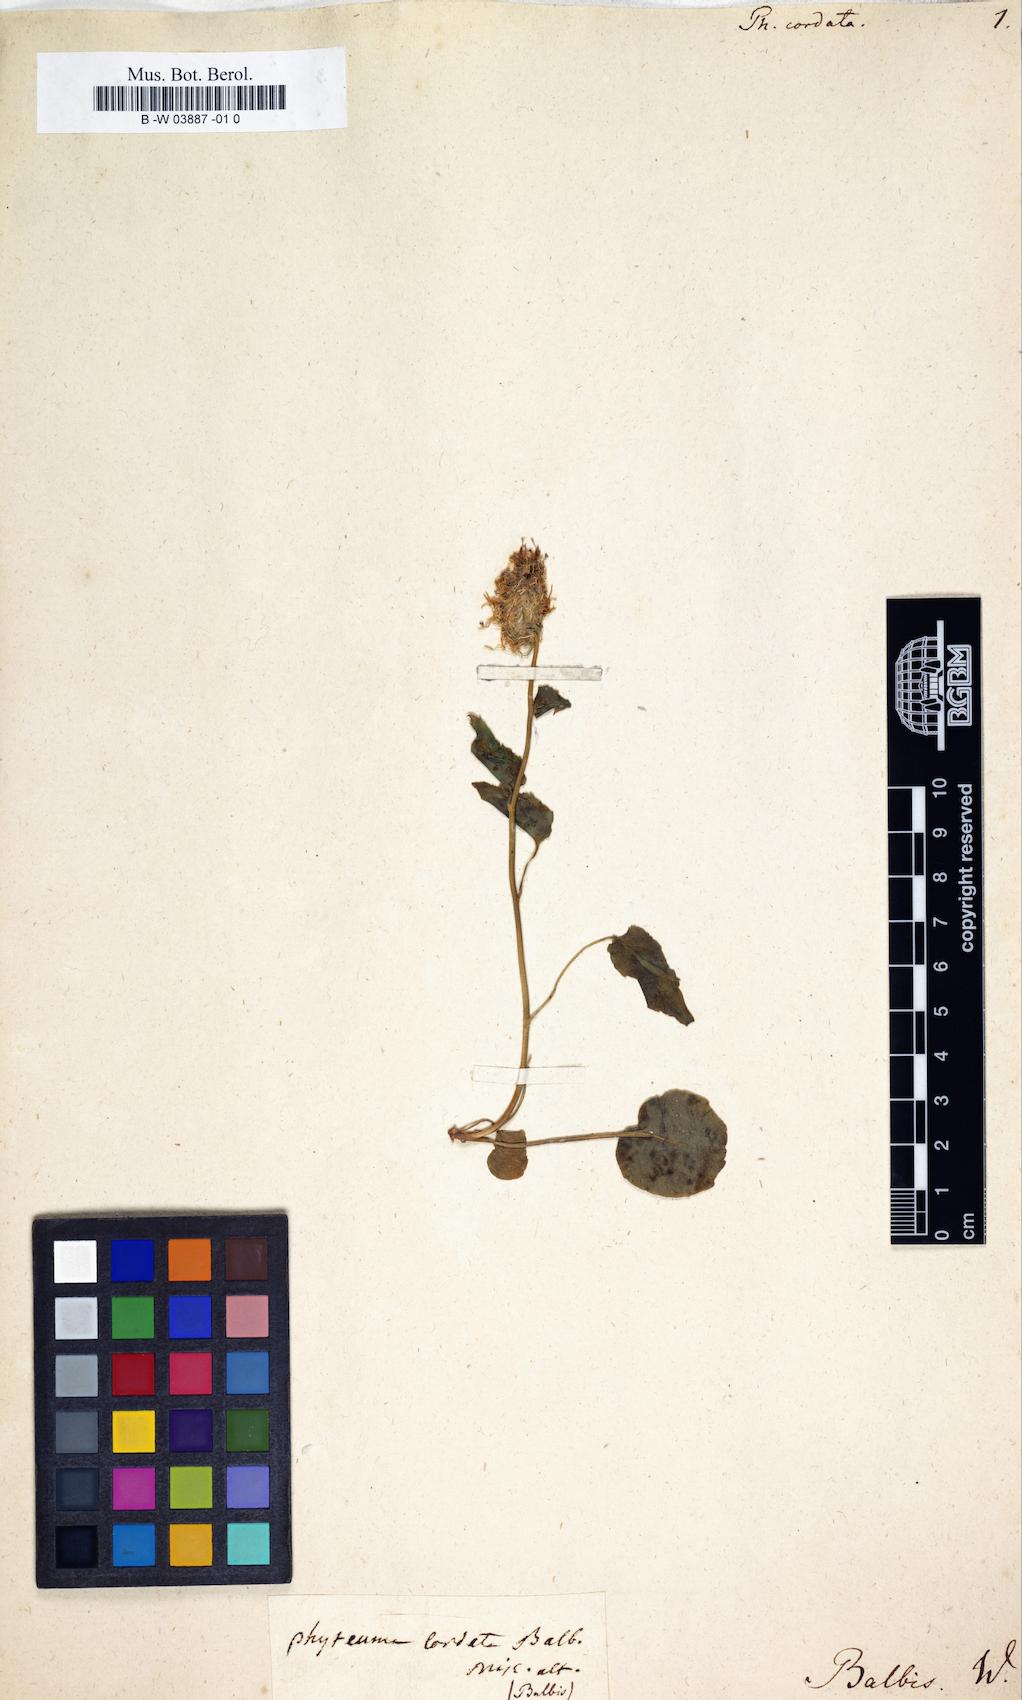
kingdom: Plantae
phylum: Tracheophyta
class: Magnoliopsida
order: Asterales
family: Campanulaceae
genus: Phyteuma
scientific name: Phyteuma cordatum
